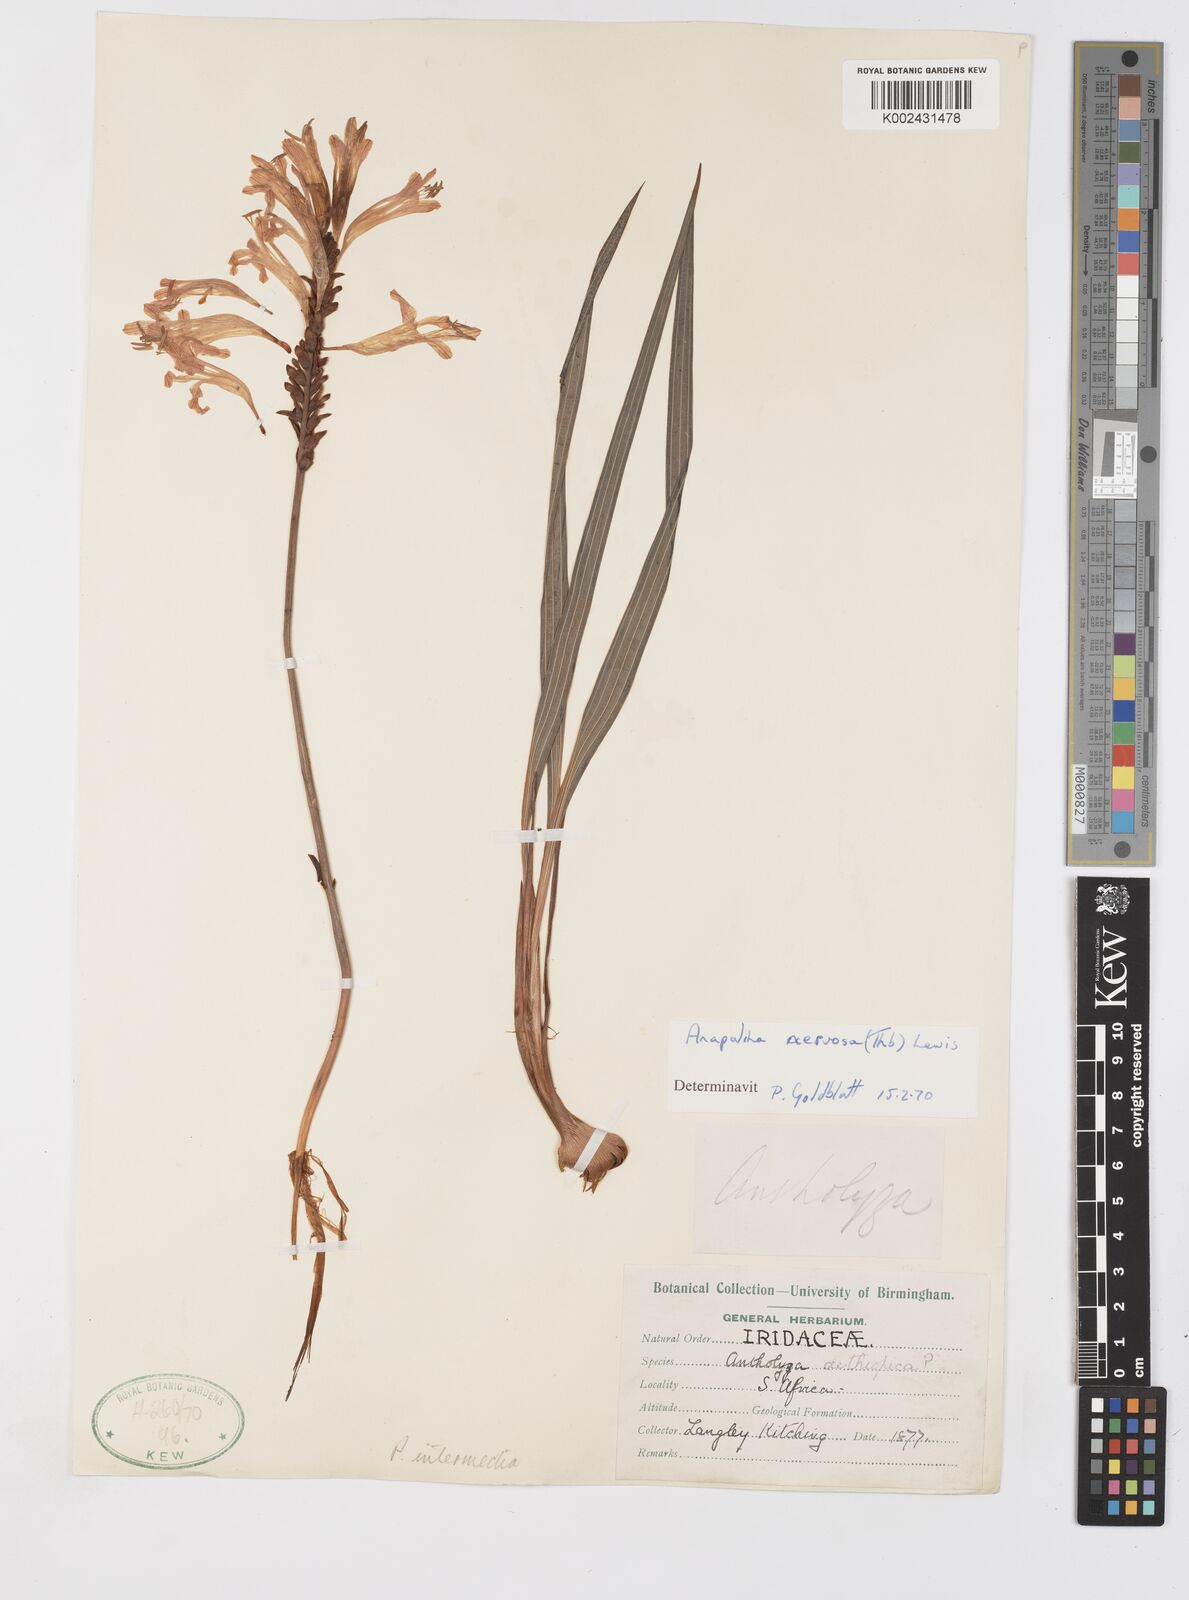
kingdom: Plantae
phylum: Tracheophyta
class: Liliopsida
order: Asparagales
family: Iridaceae
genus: Tritoniopsis
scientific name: Tritoniopsis nervosa
